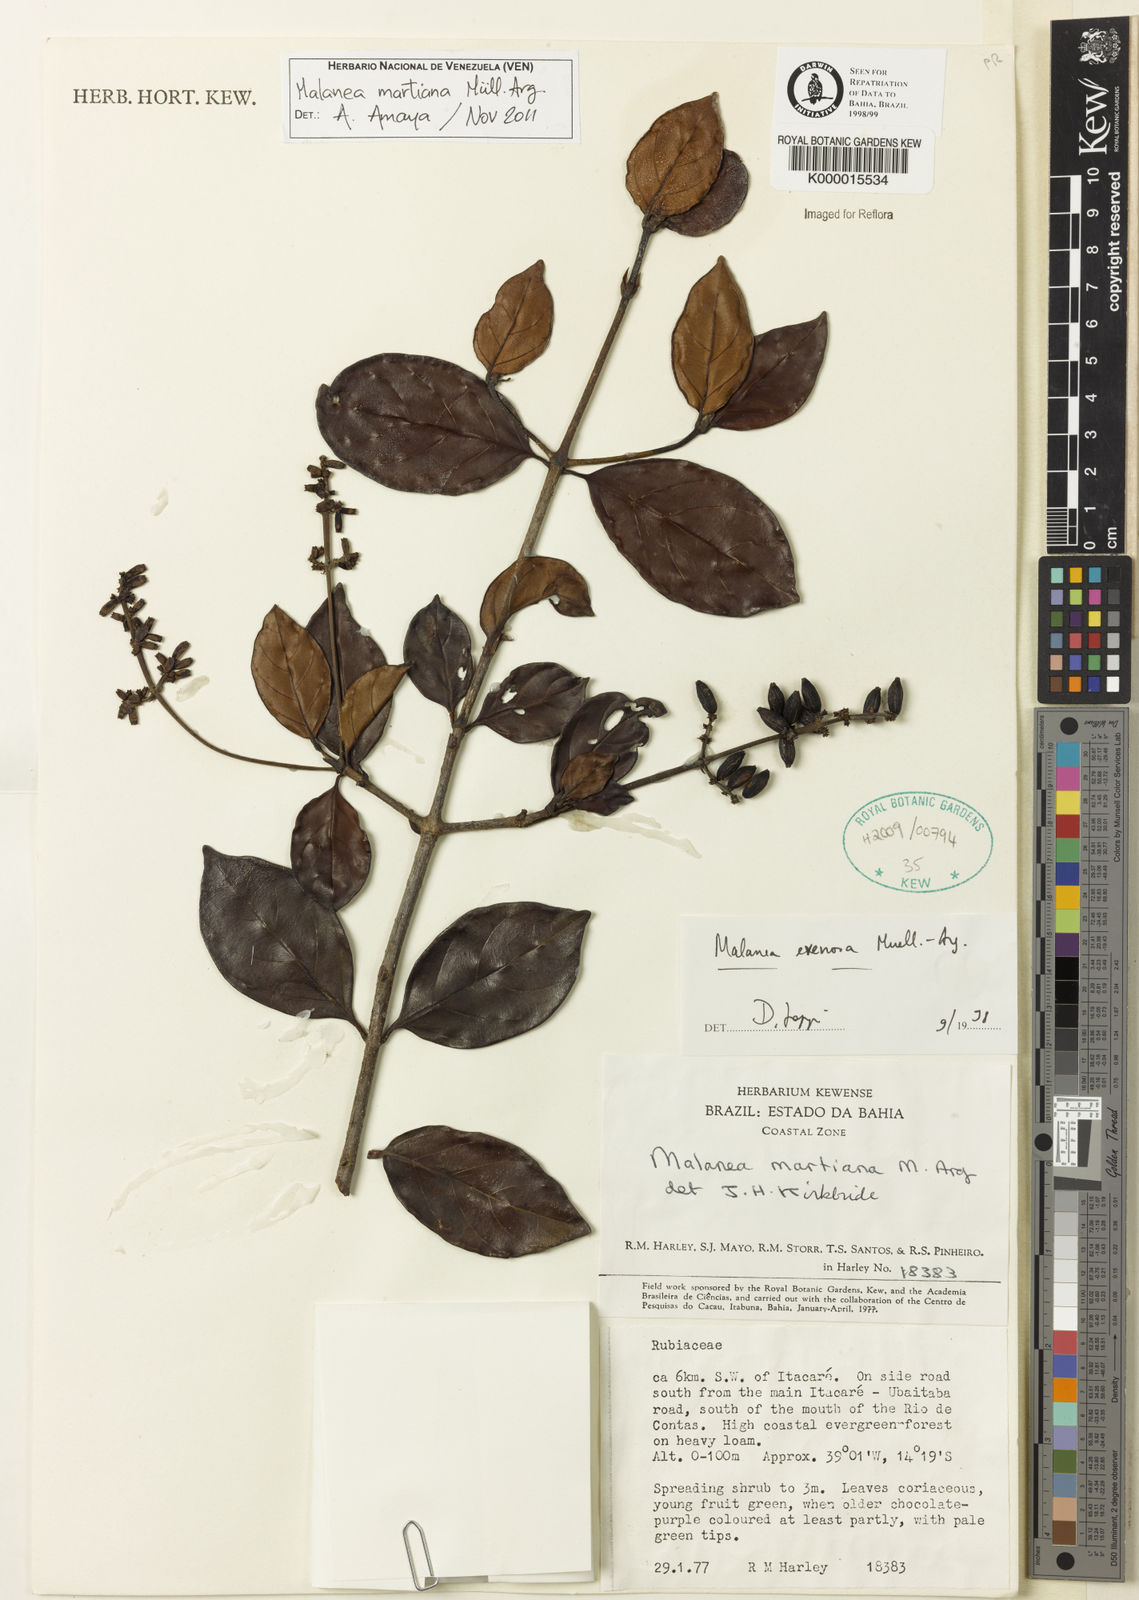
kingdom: Plantae
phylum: Tracheophyta
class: Magnoliopsida
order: Gentianales
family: Rubiaceae
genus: Malanea
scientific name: Malanea
